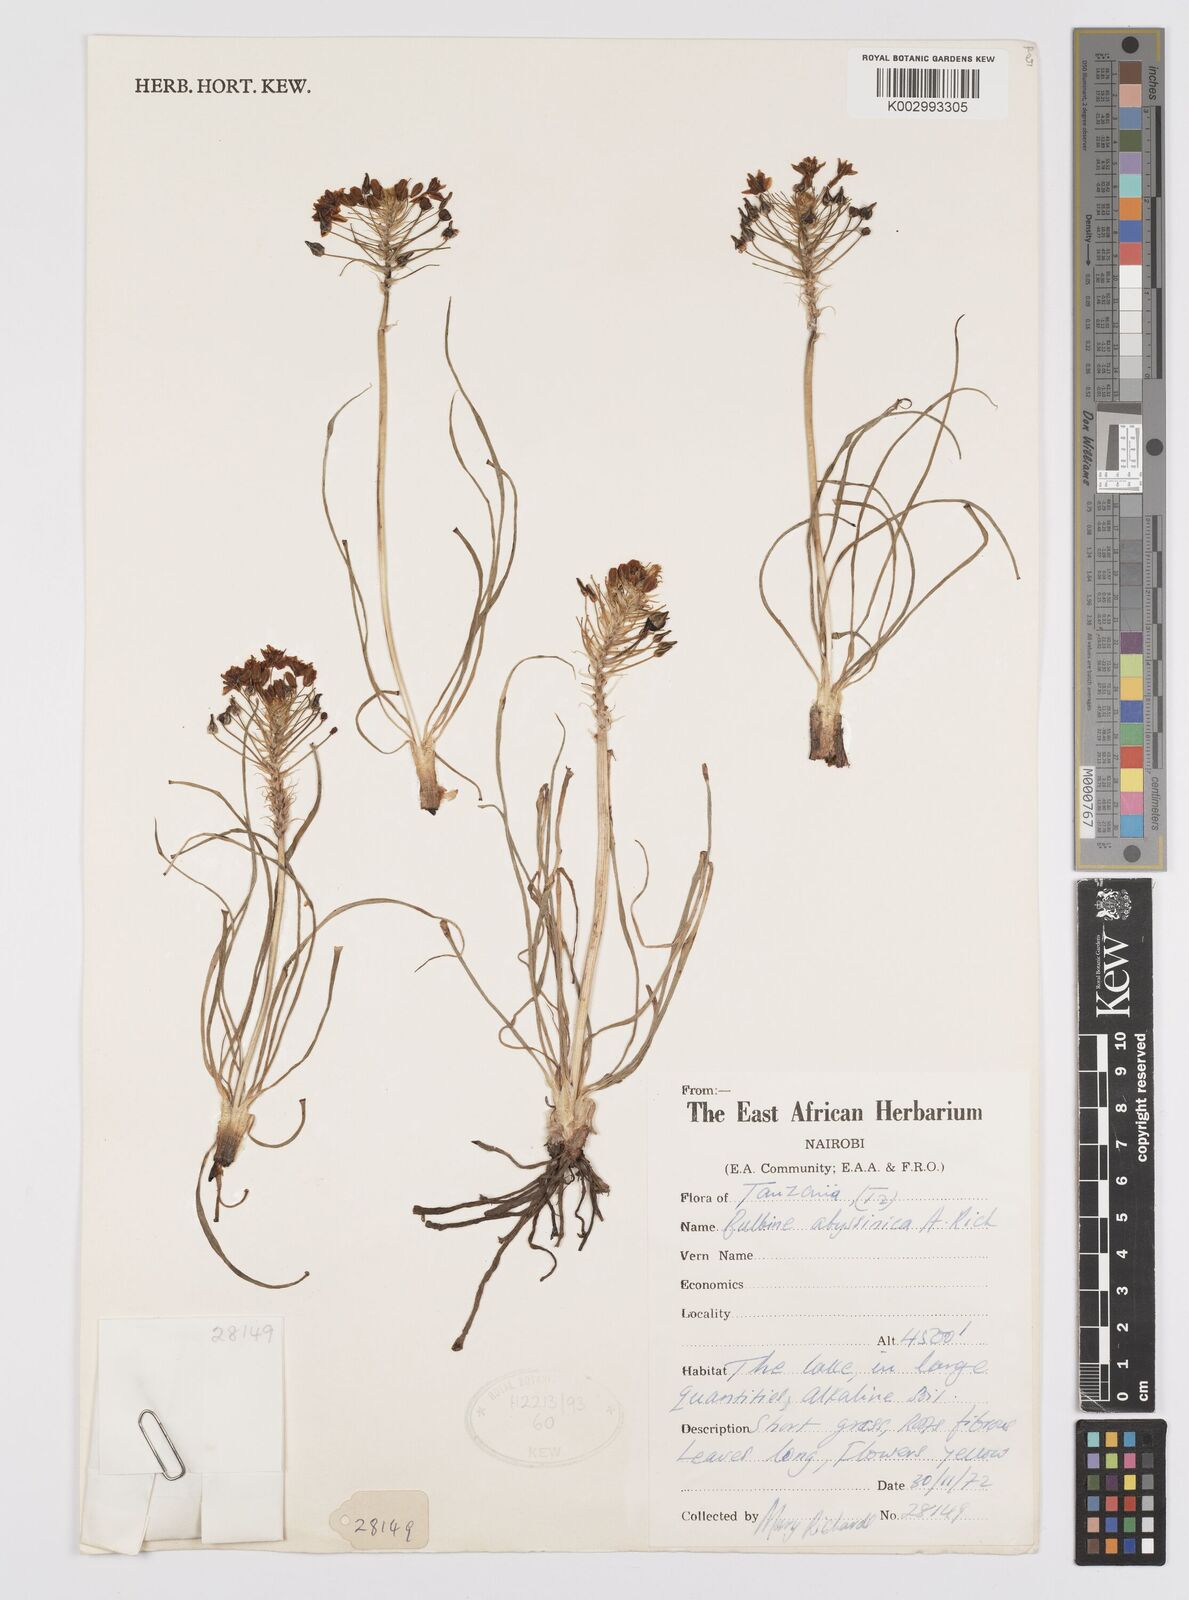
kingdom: Plantae
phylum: Tracheophyta
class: Liliopsida
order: Asparagales
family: Asphodelaceae
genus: Bulbine
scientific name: Bulbine abyssinica
